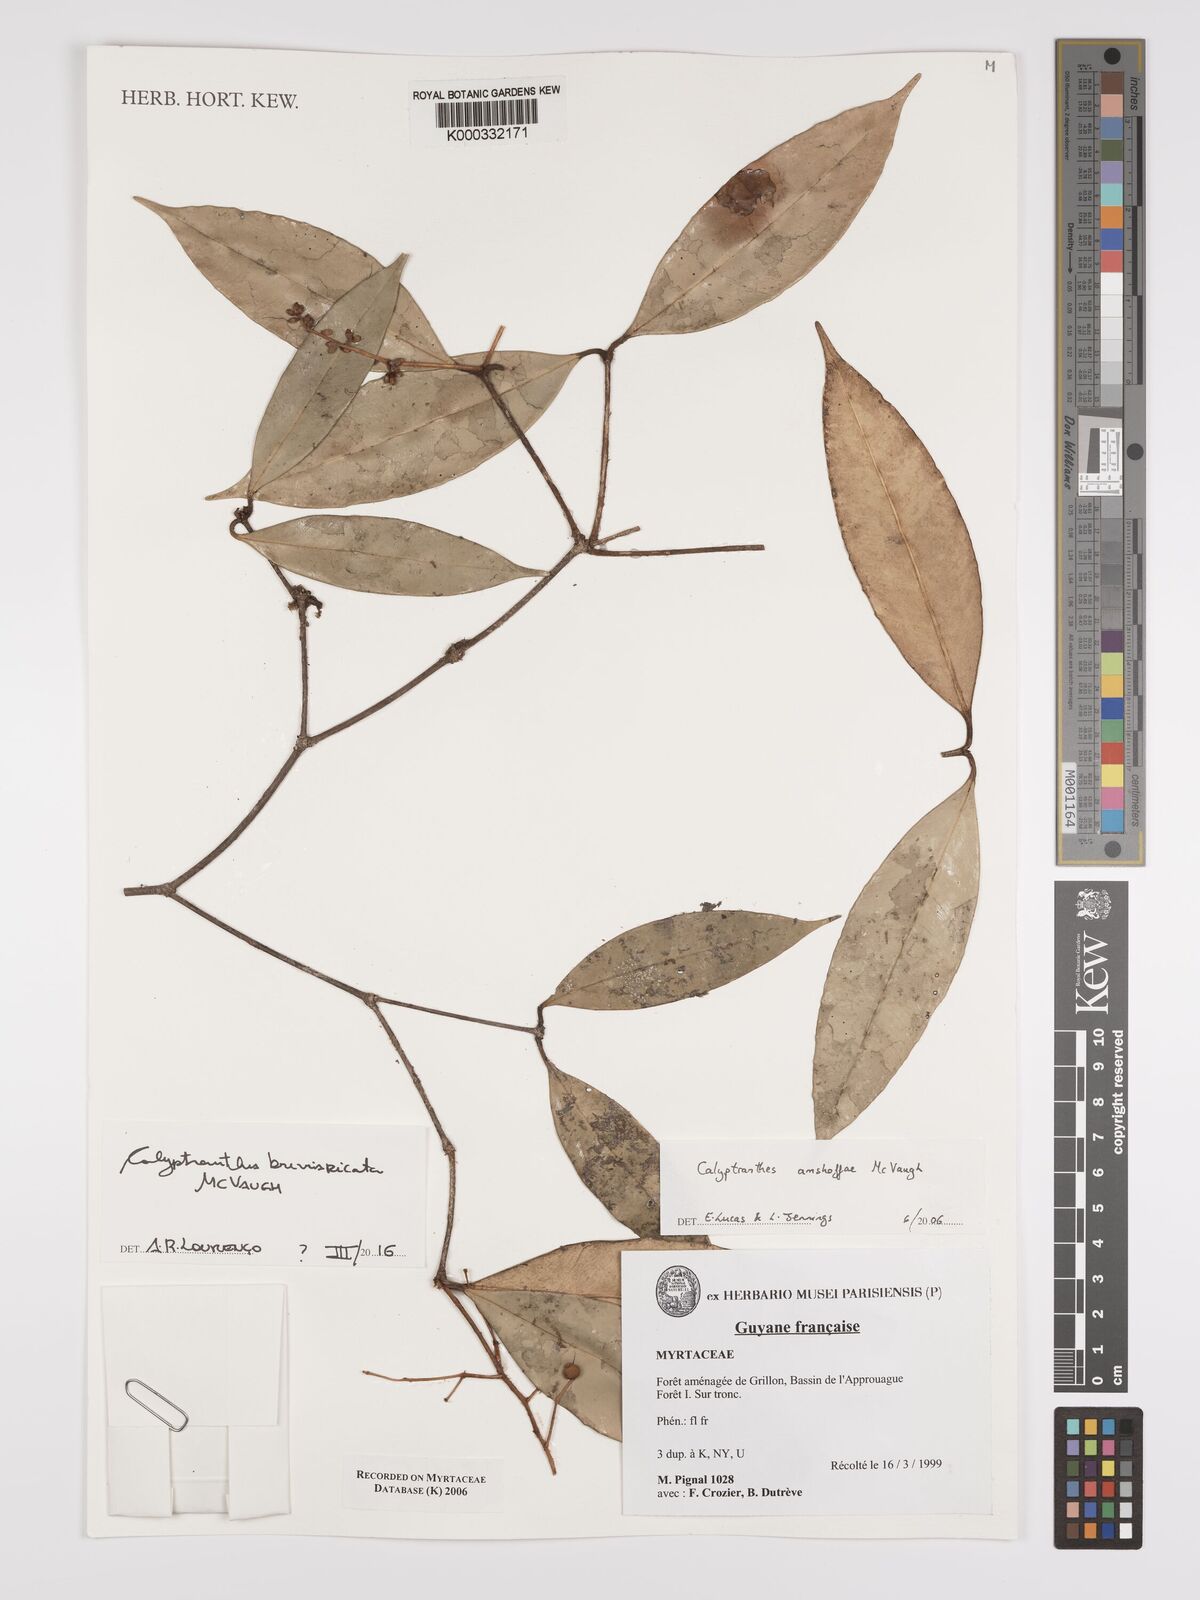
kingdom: Plantae
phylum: Tracheophyta
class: Magnoliopsida
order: Myrtales
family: Myrtaceae
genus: Myrcia
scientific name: Myrcia amshoffae
